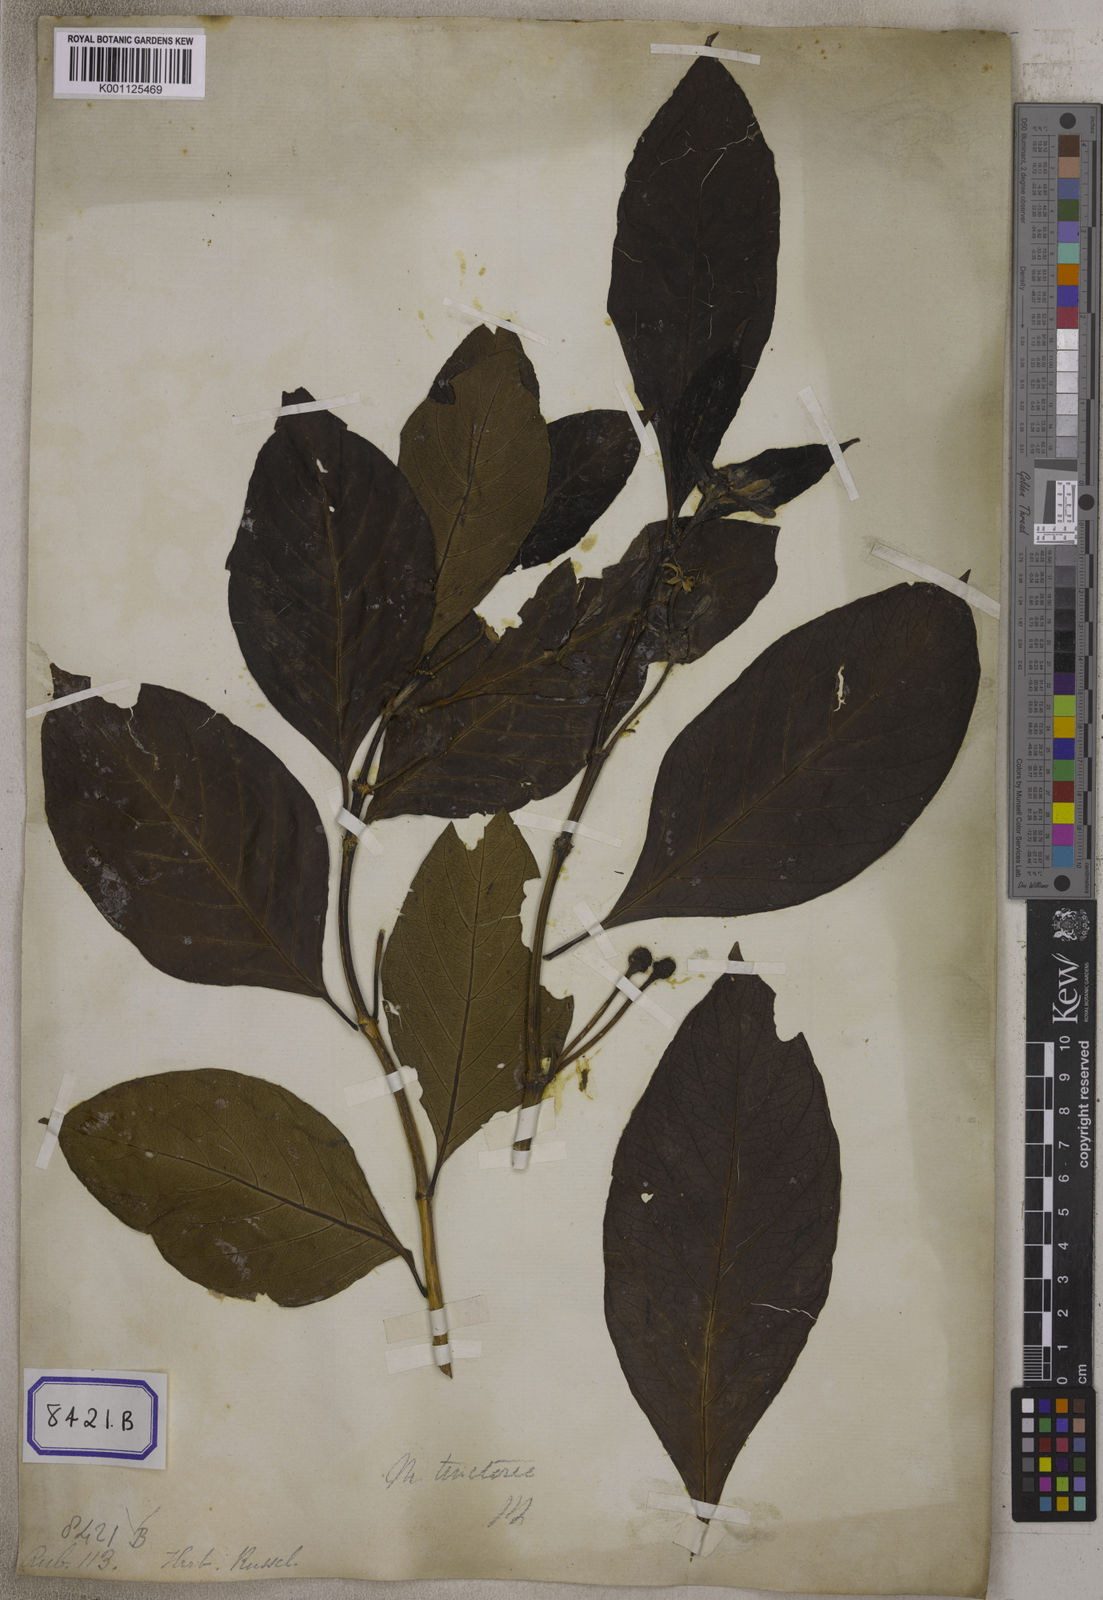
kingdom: Plantae
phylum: Tracheophyta
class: Magnoliopsida
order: Gentianales
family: Rubiaceae
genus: Morinda
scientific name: Morinda coreia
